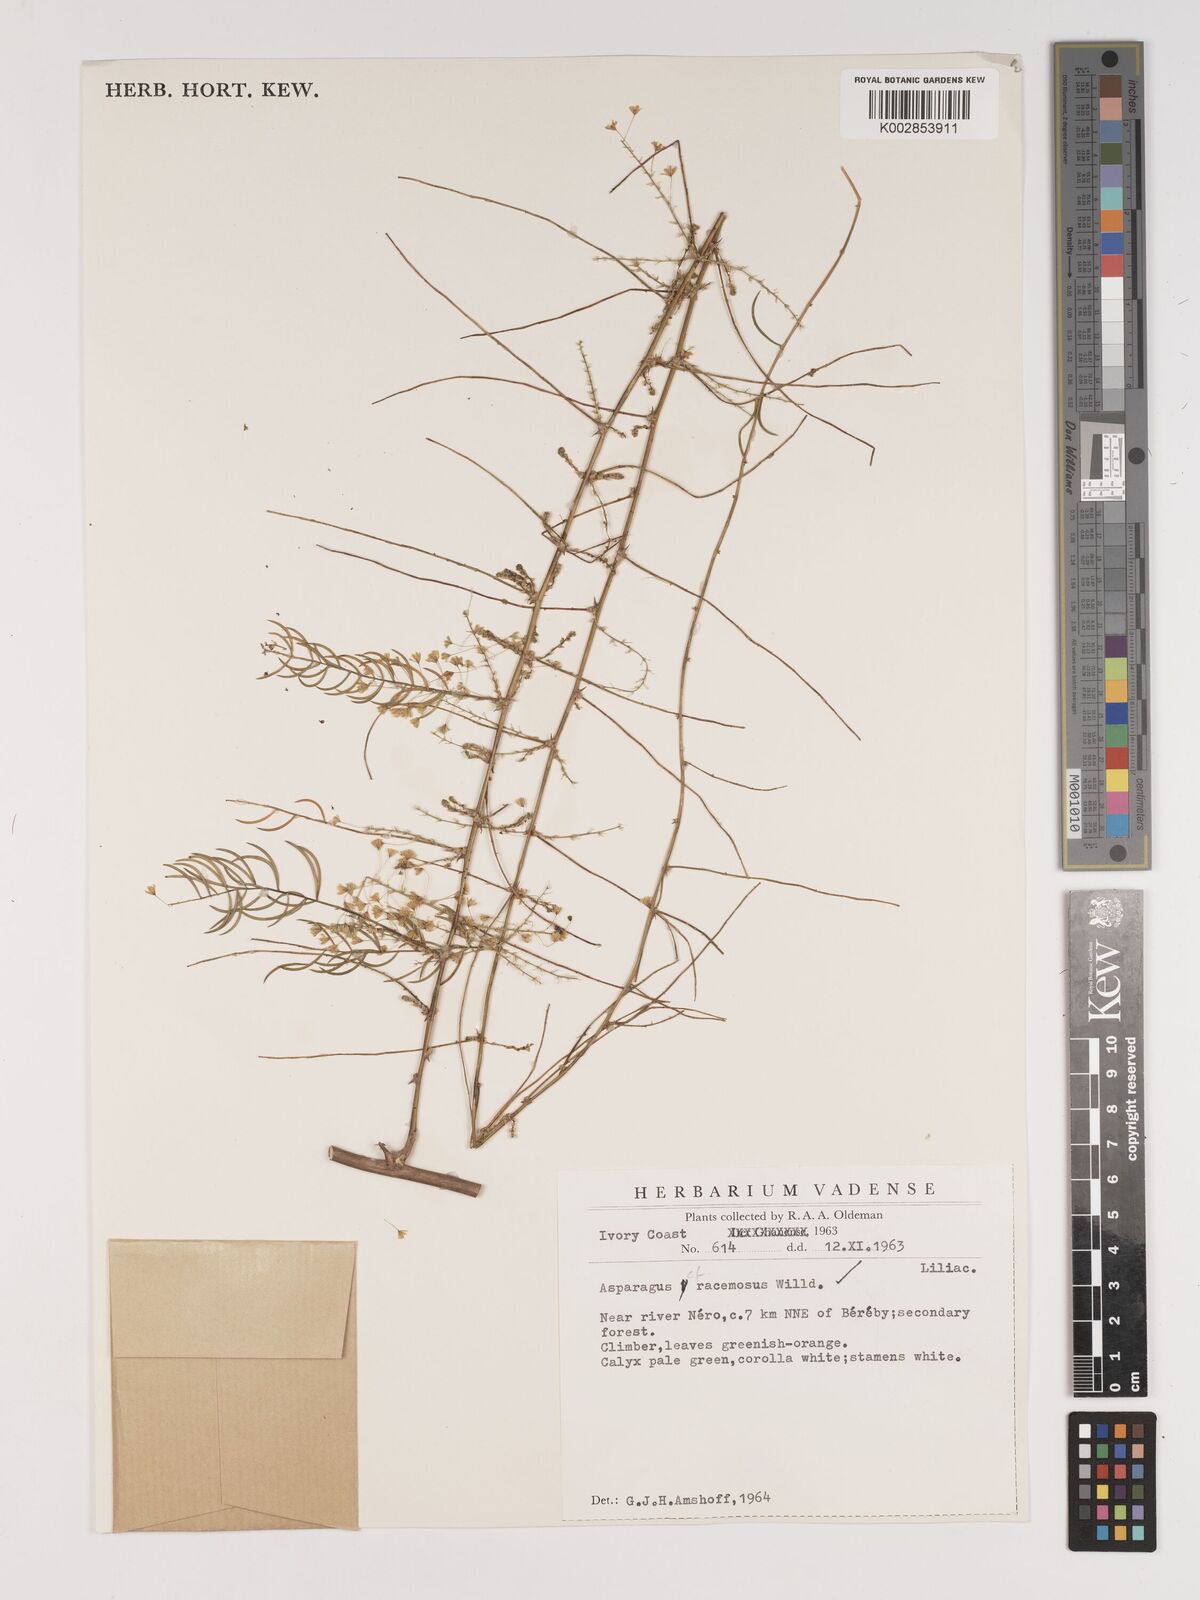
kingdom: Plantae
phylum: Tracheophyta
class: Liliopsida
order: Asparagales
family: Asparagaceae
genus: Asparagus
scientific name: Asparagus racemosus
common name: Asparagus-fern
